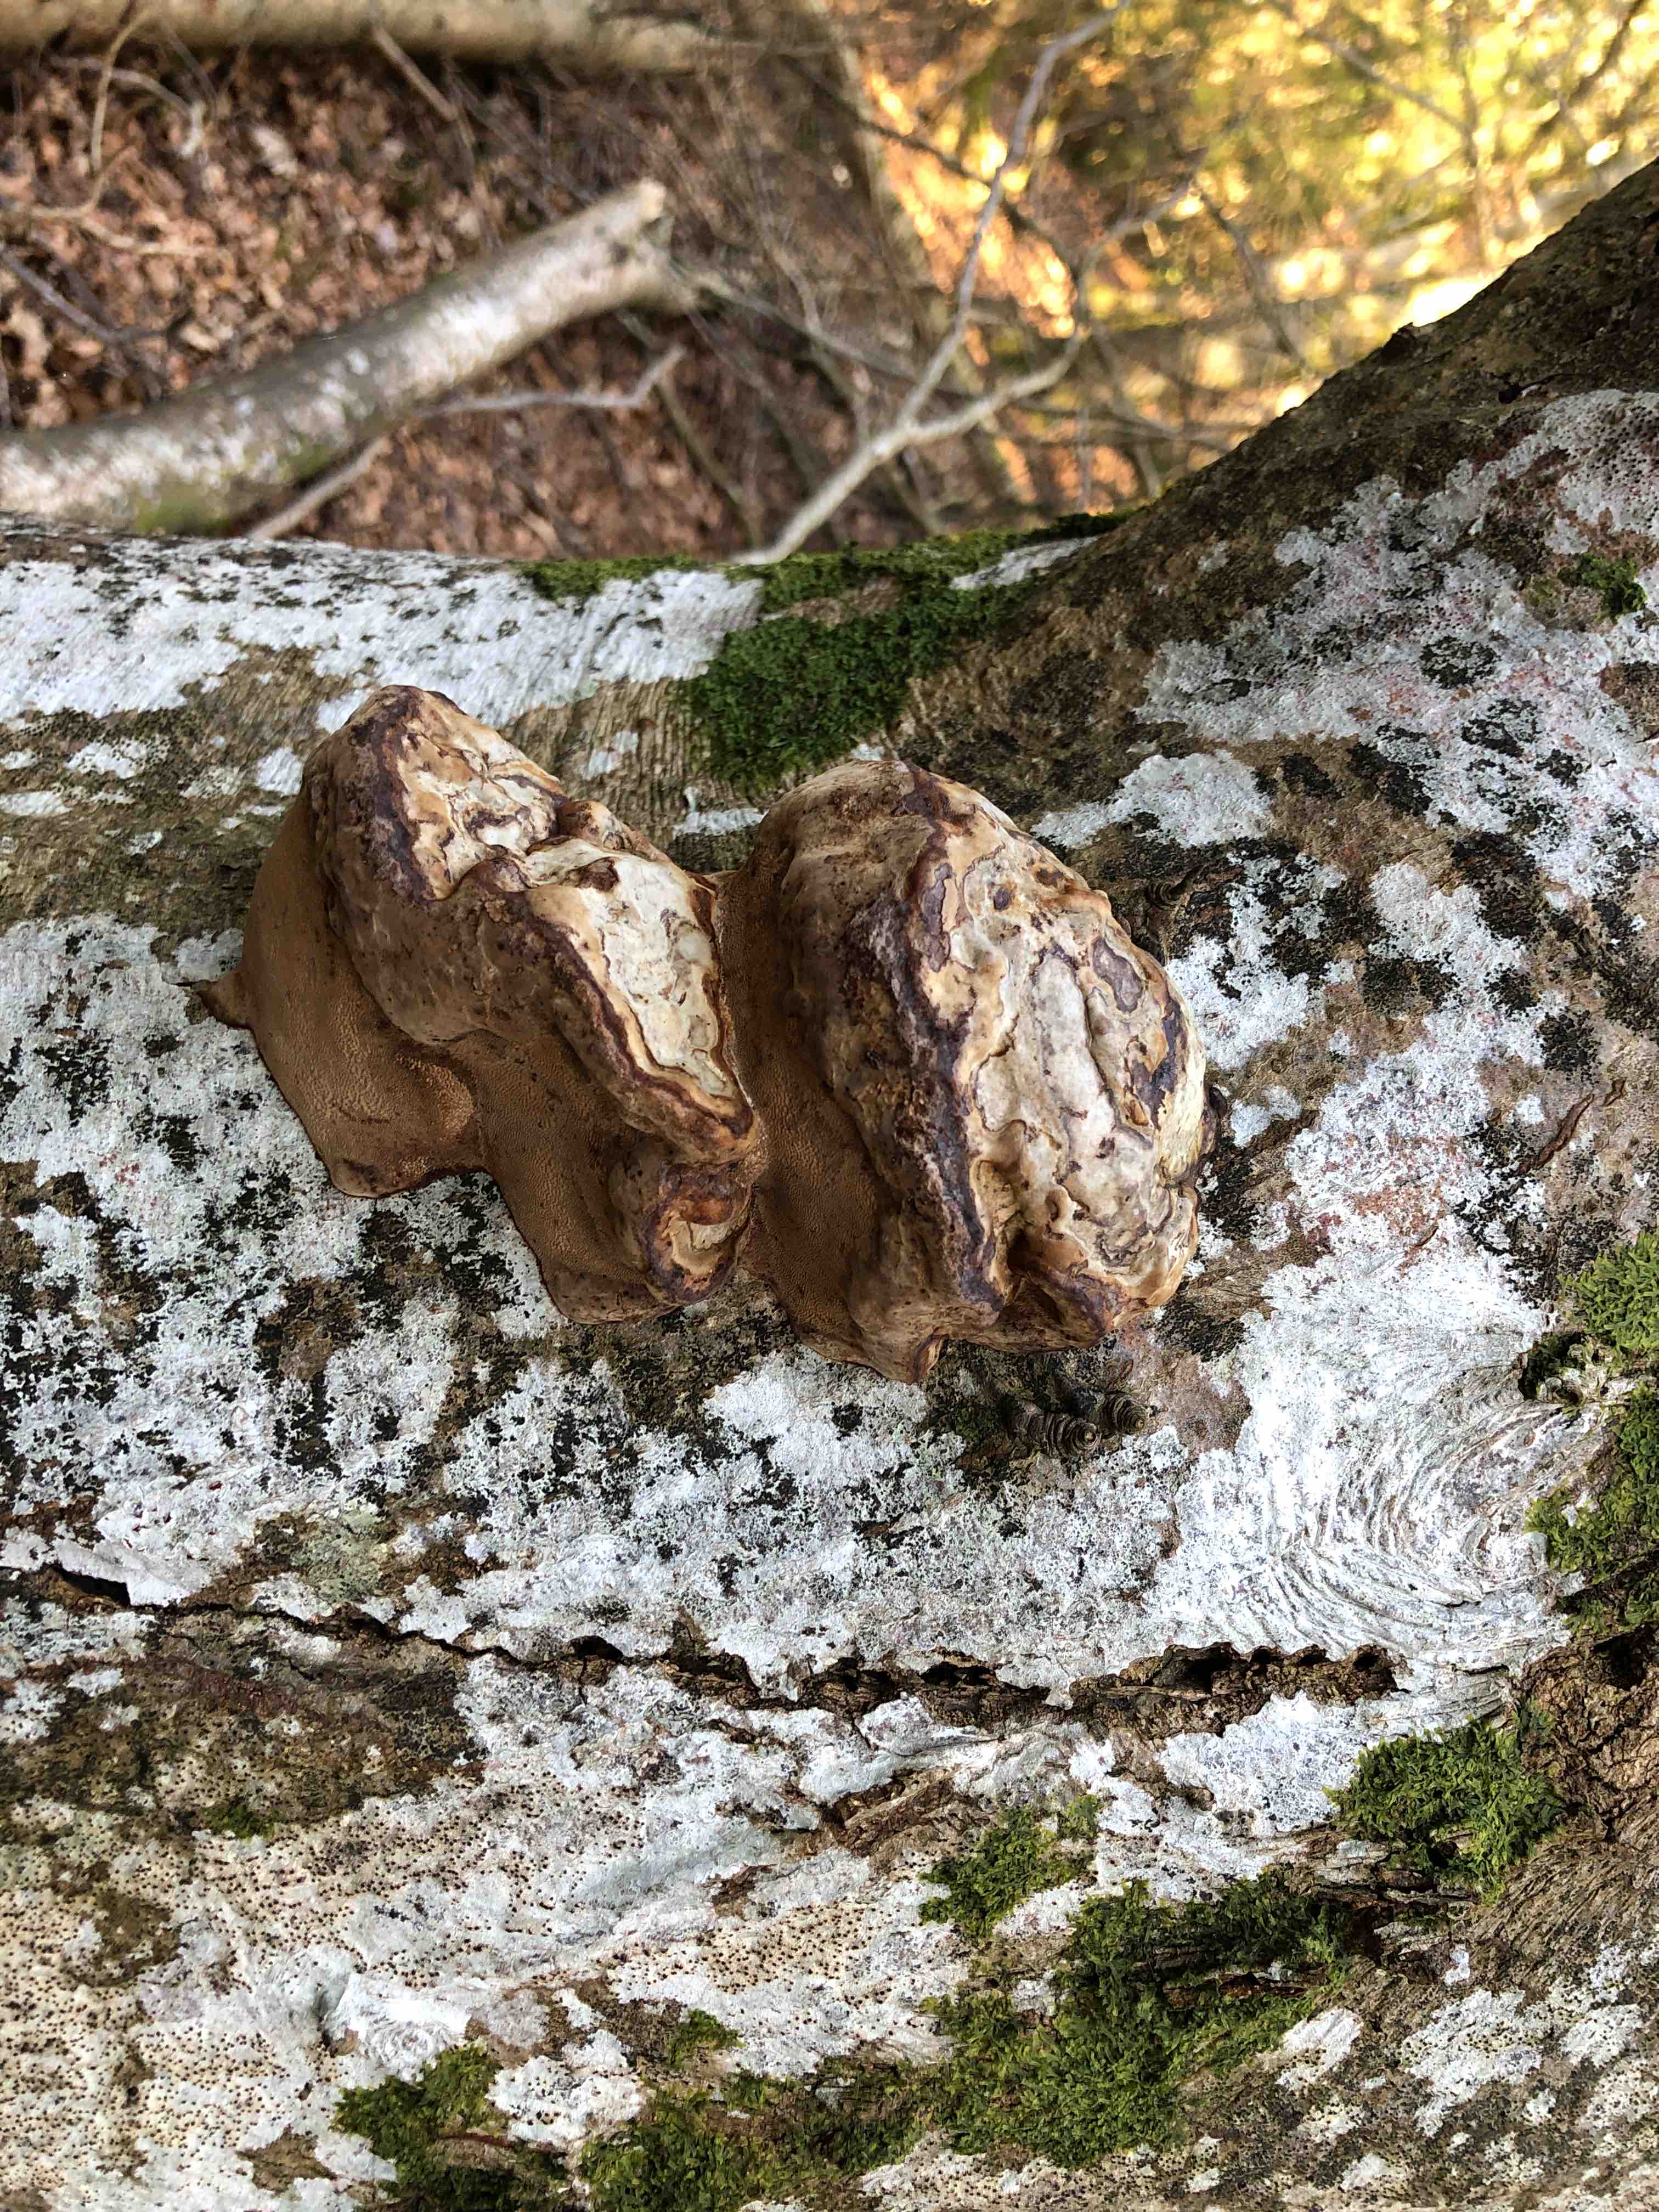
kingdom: Fungi
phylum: Basidiomycota
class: Agaricomycetes
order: Polyporales
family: Polyporaceae
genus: Fomes
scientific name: Fomes fomentarius
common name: tøndersvamp
